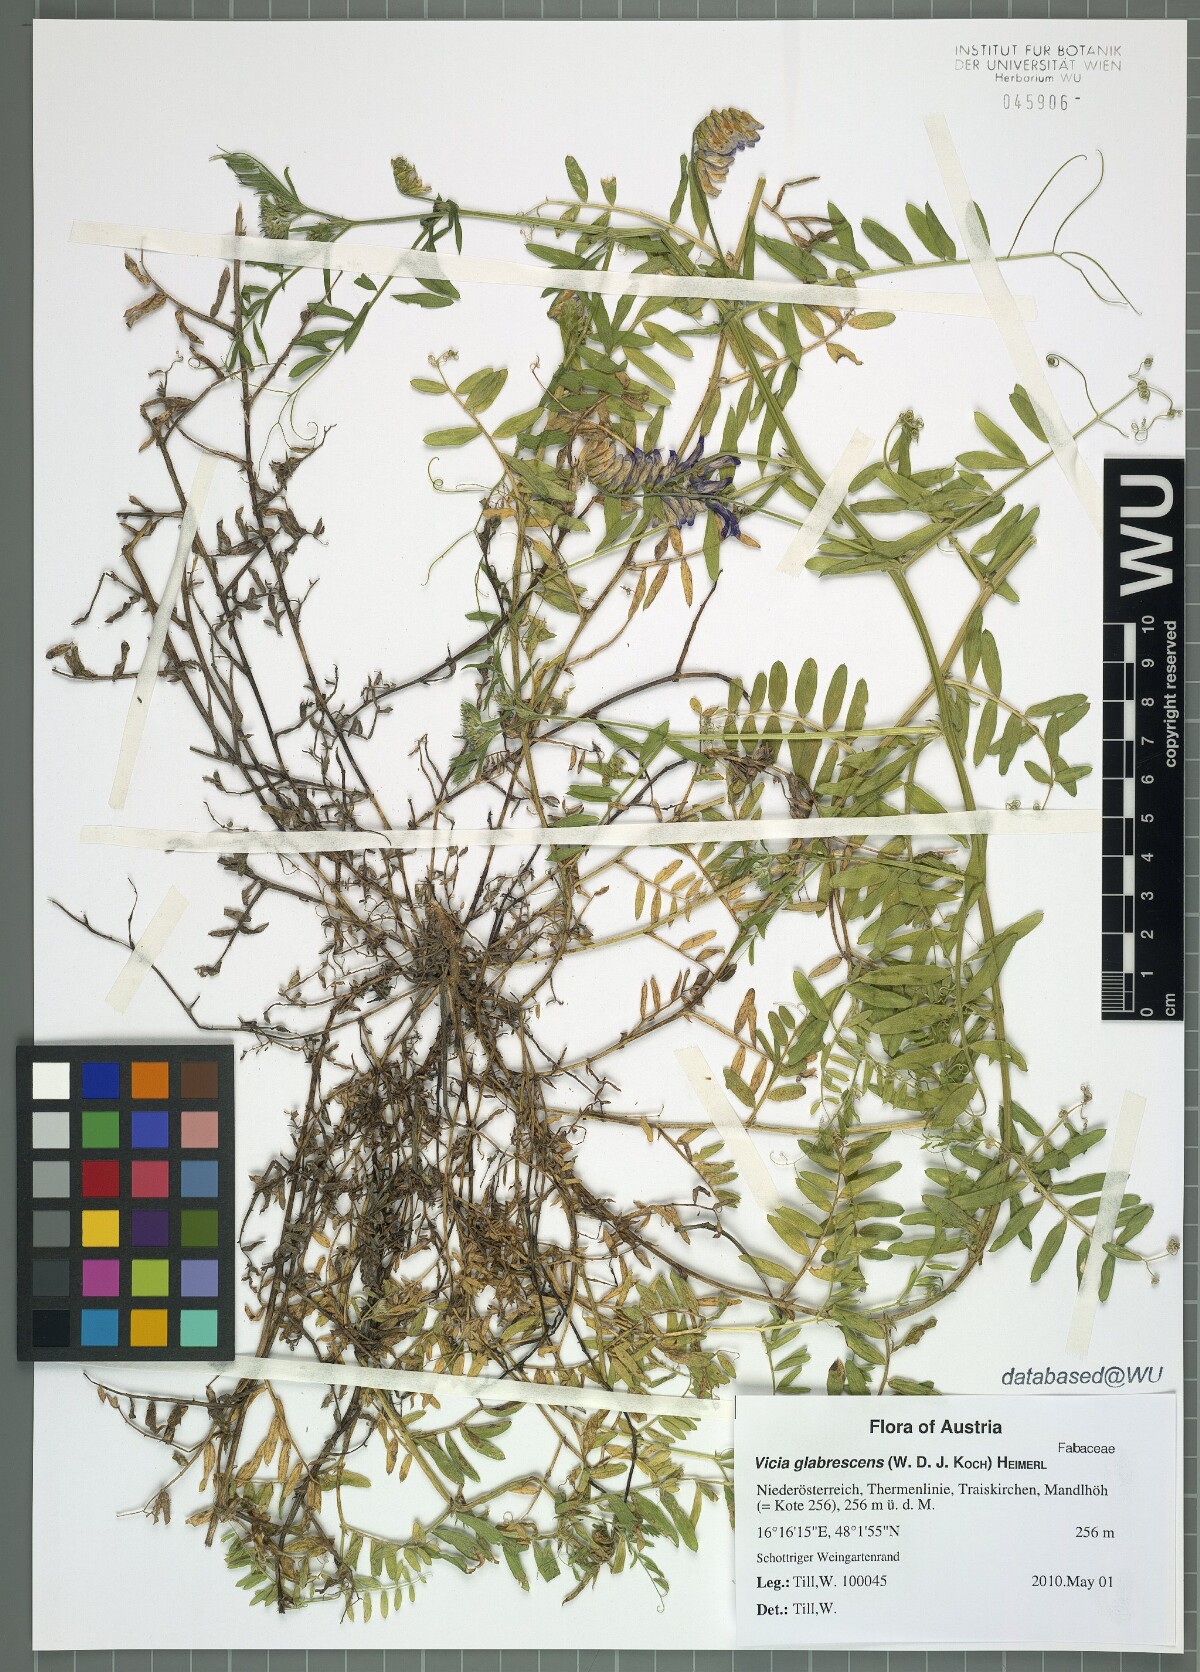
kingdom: Plantae
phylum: Tracheophyta
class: Magnoliopsida
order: Fabales
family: Fabaceae
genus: Vicia
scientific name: Vicia villosa
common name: Fodder vetch
